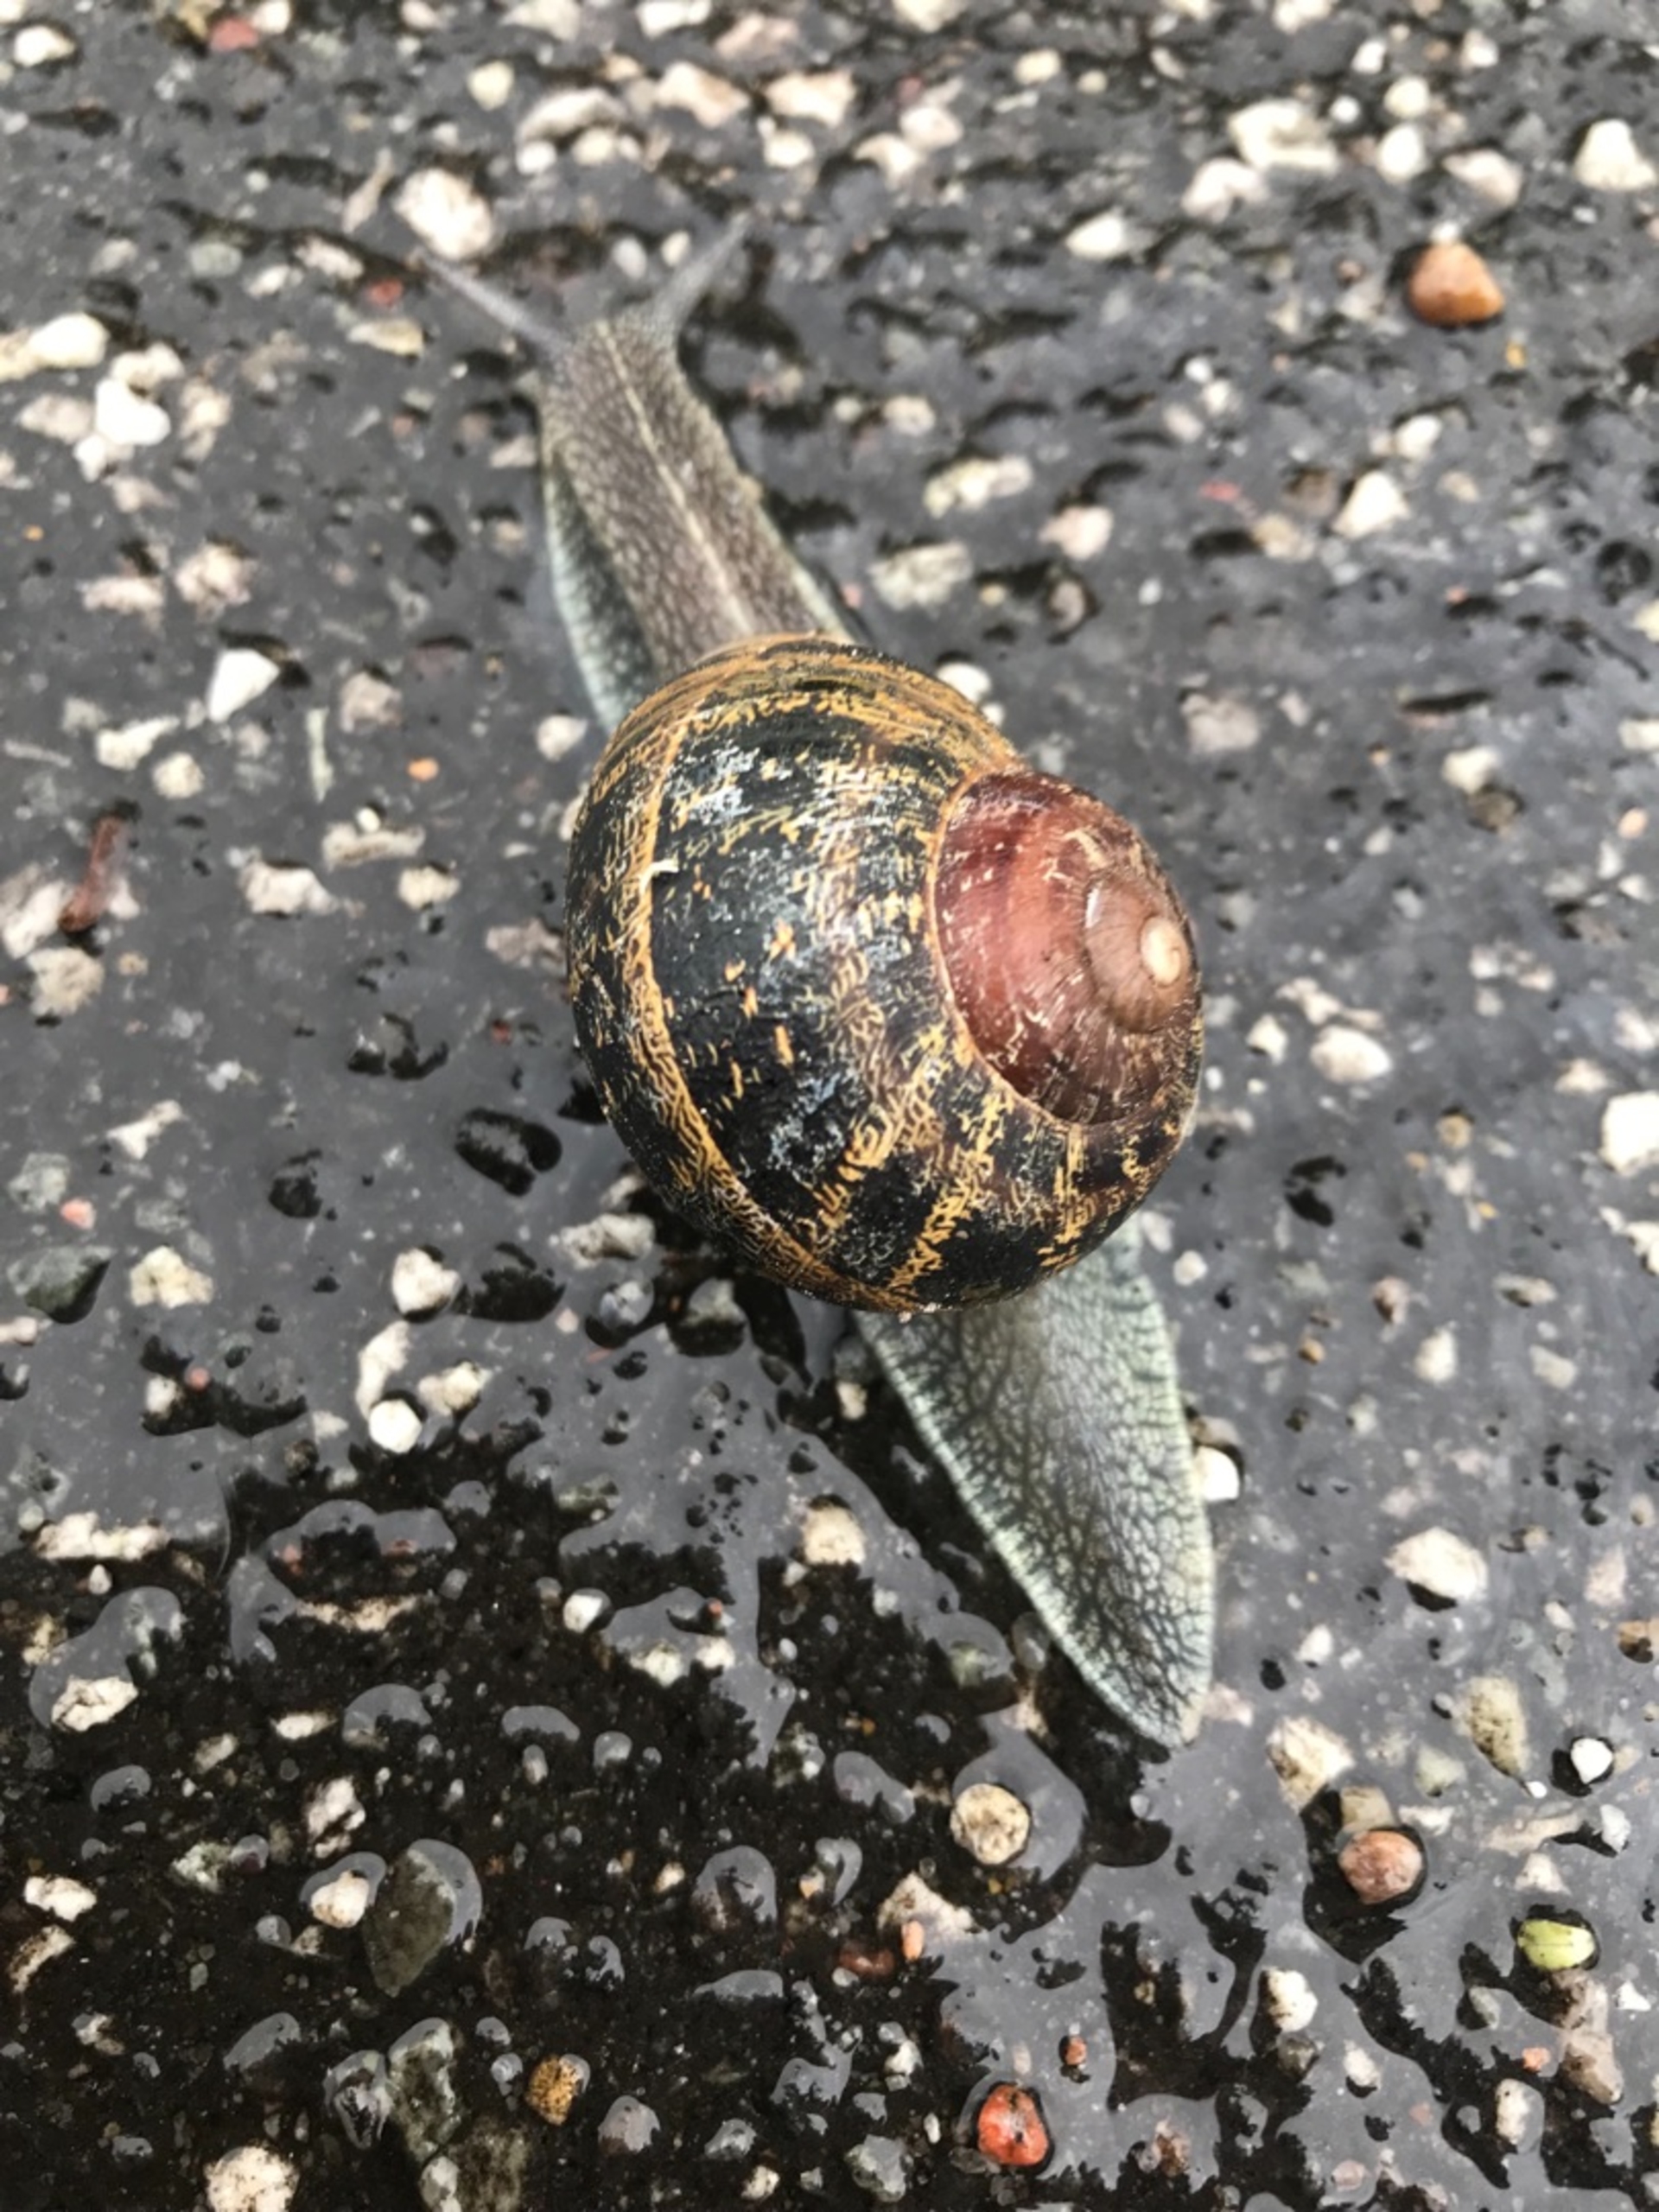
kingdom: Animalia
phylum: Mollusca
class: Gastropoda
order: Stylommatophora
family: Helicidae
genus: Cornu
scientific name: Cornu aspersum
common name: Plettet voldsnegl
